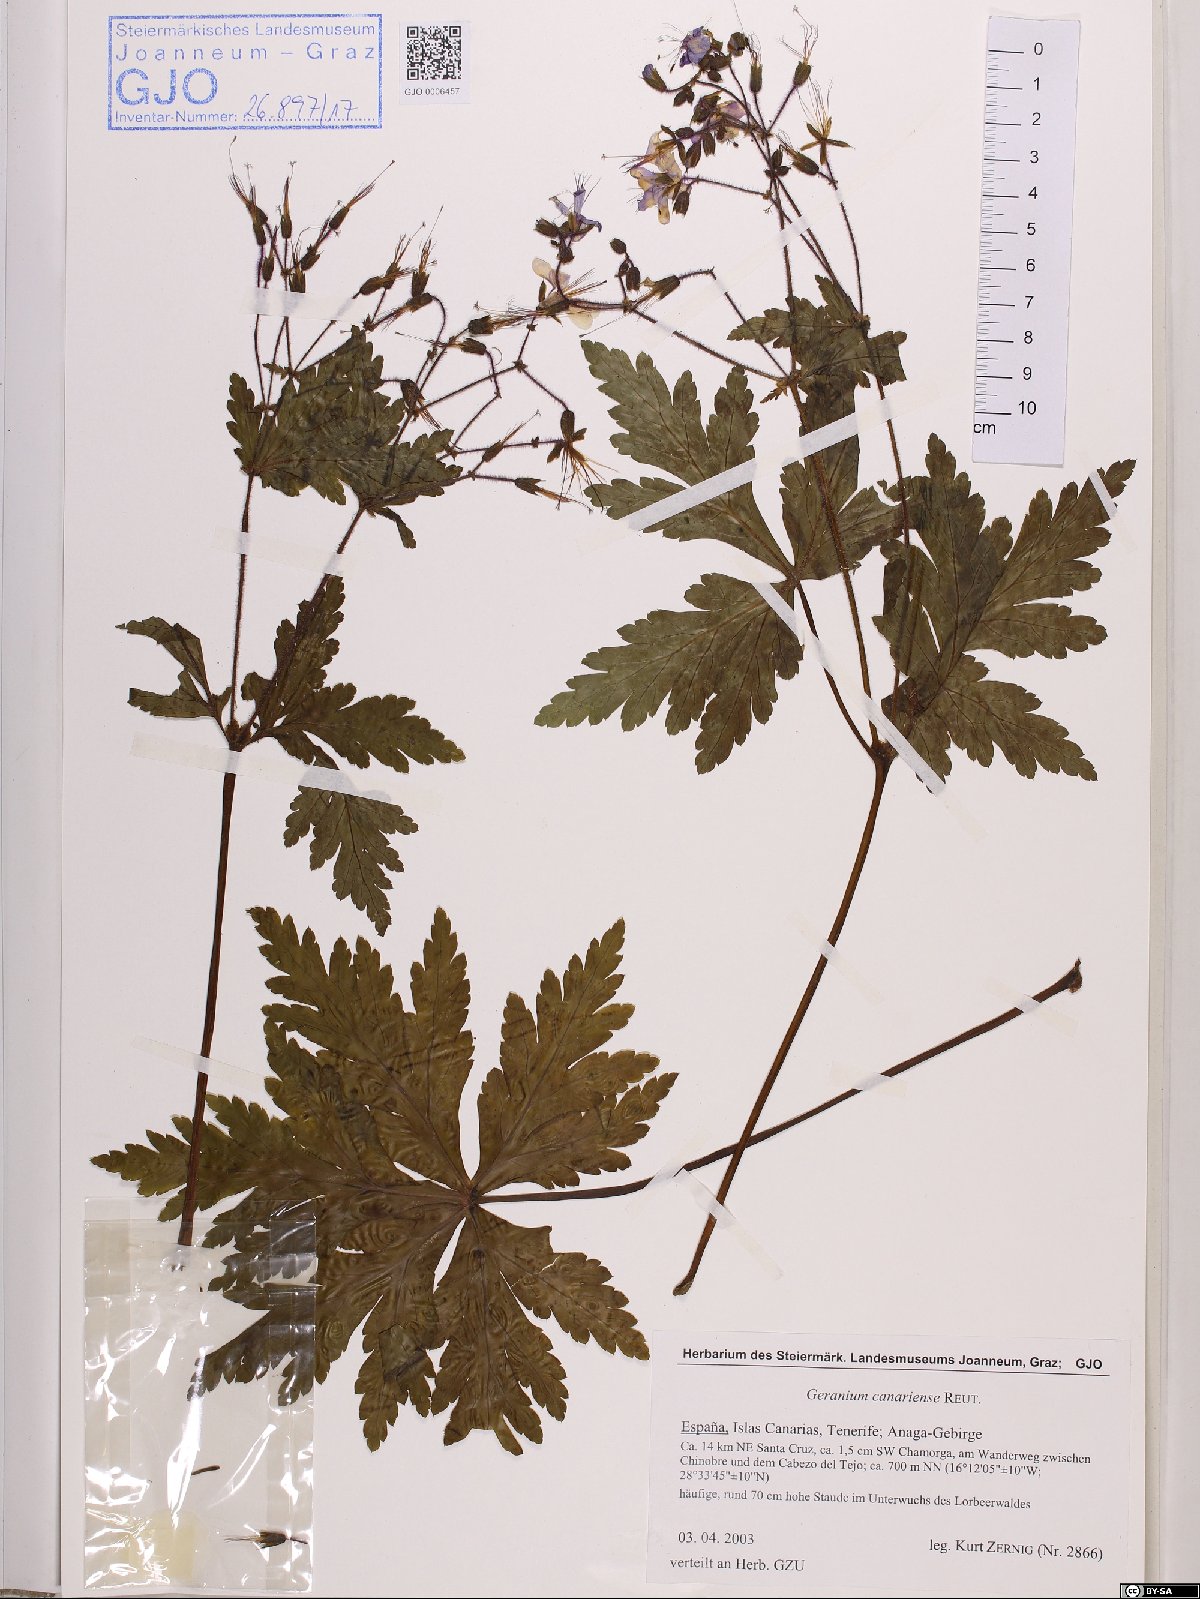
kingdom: Plantae
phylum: Tracheophyta
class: Magnoliopsida
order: Geraniales
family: Geraniaceae
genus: Geranium
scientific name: Geranium reuteri
